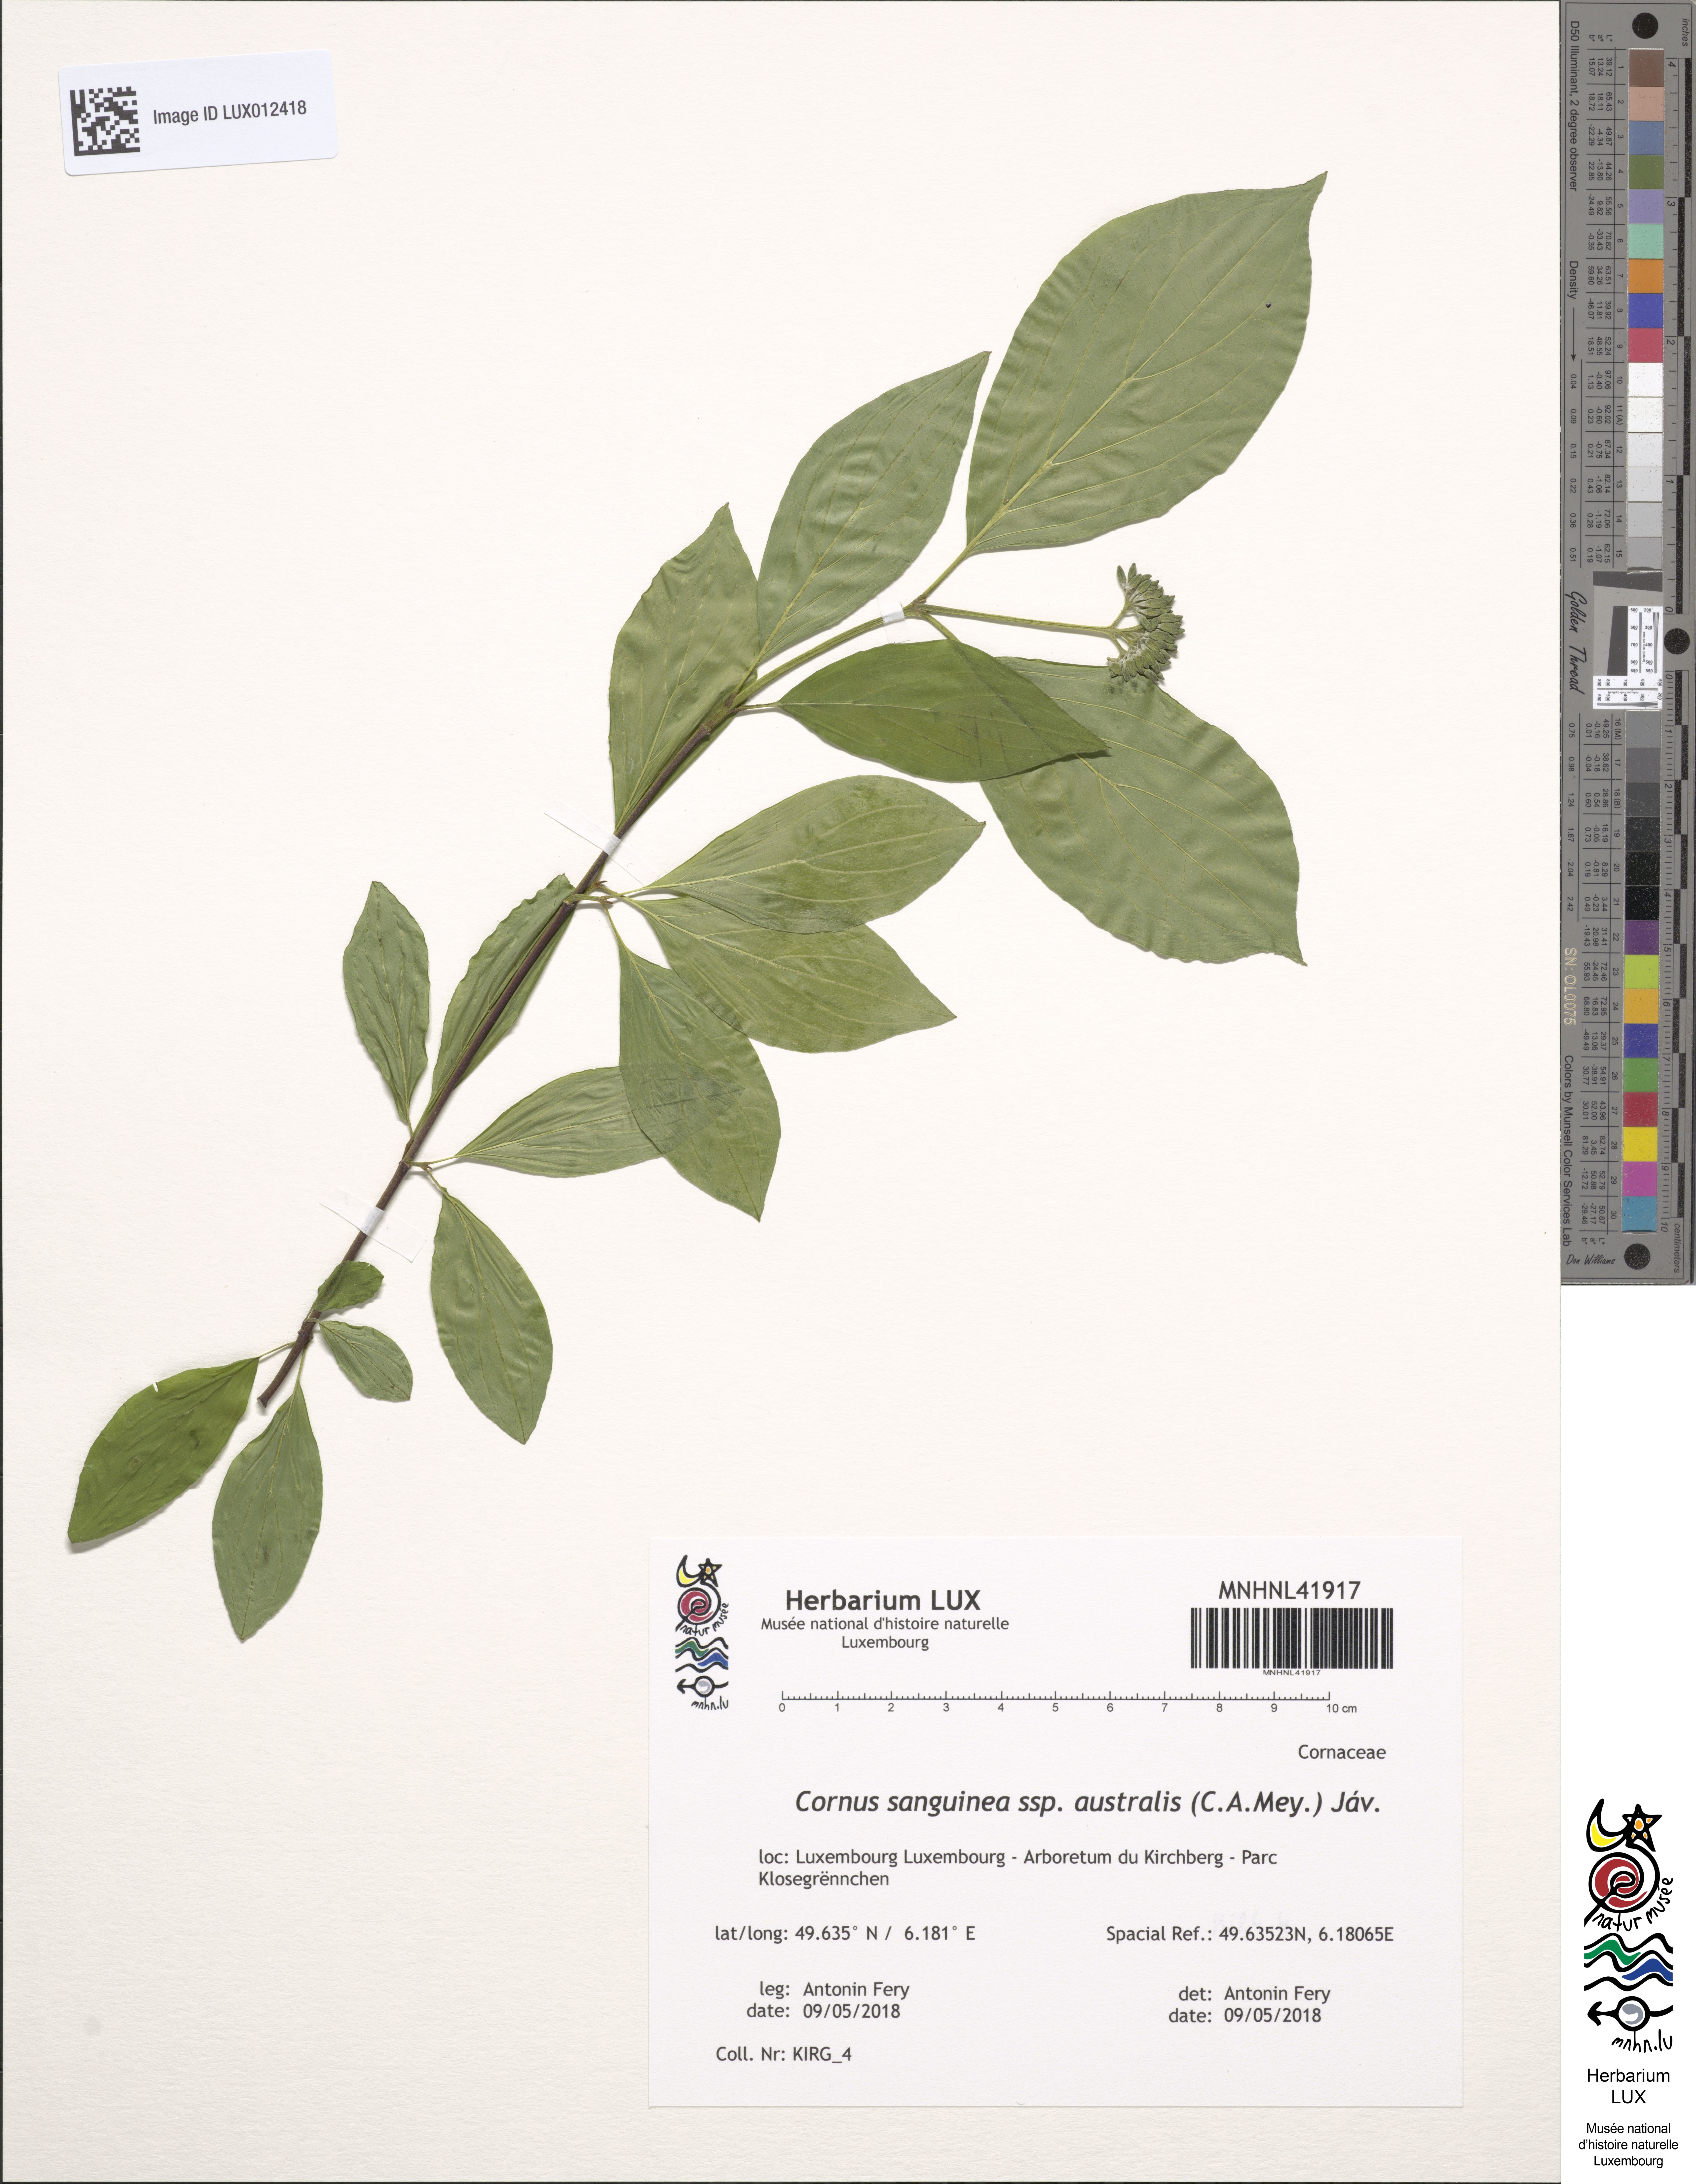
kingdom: Plantae
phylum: Tracheophyta
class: Magnoliopsida
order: Cornales
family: Cornaceae
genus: Cornus
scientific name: Cornus sanguinea
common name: Dogwood
